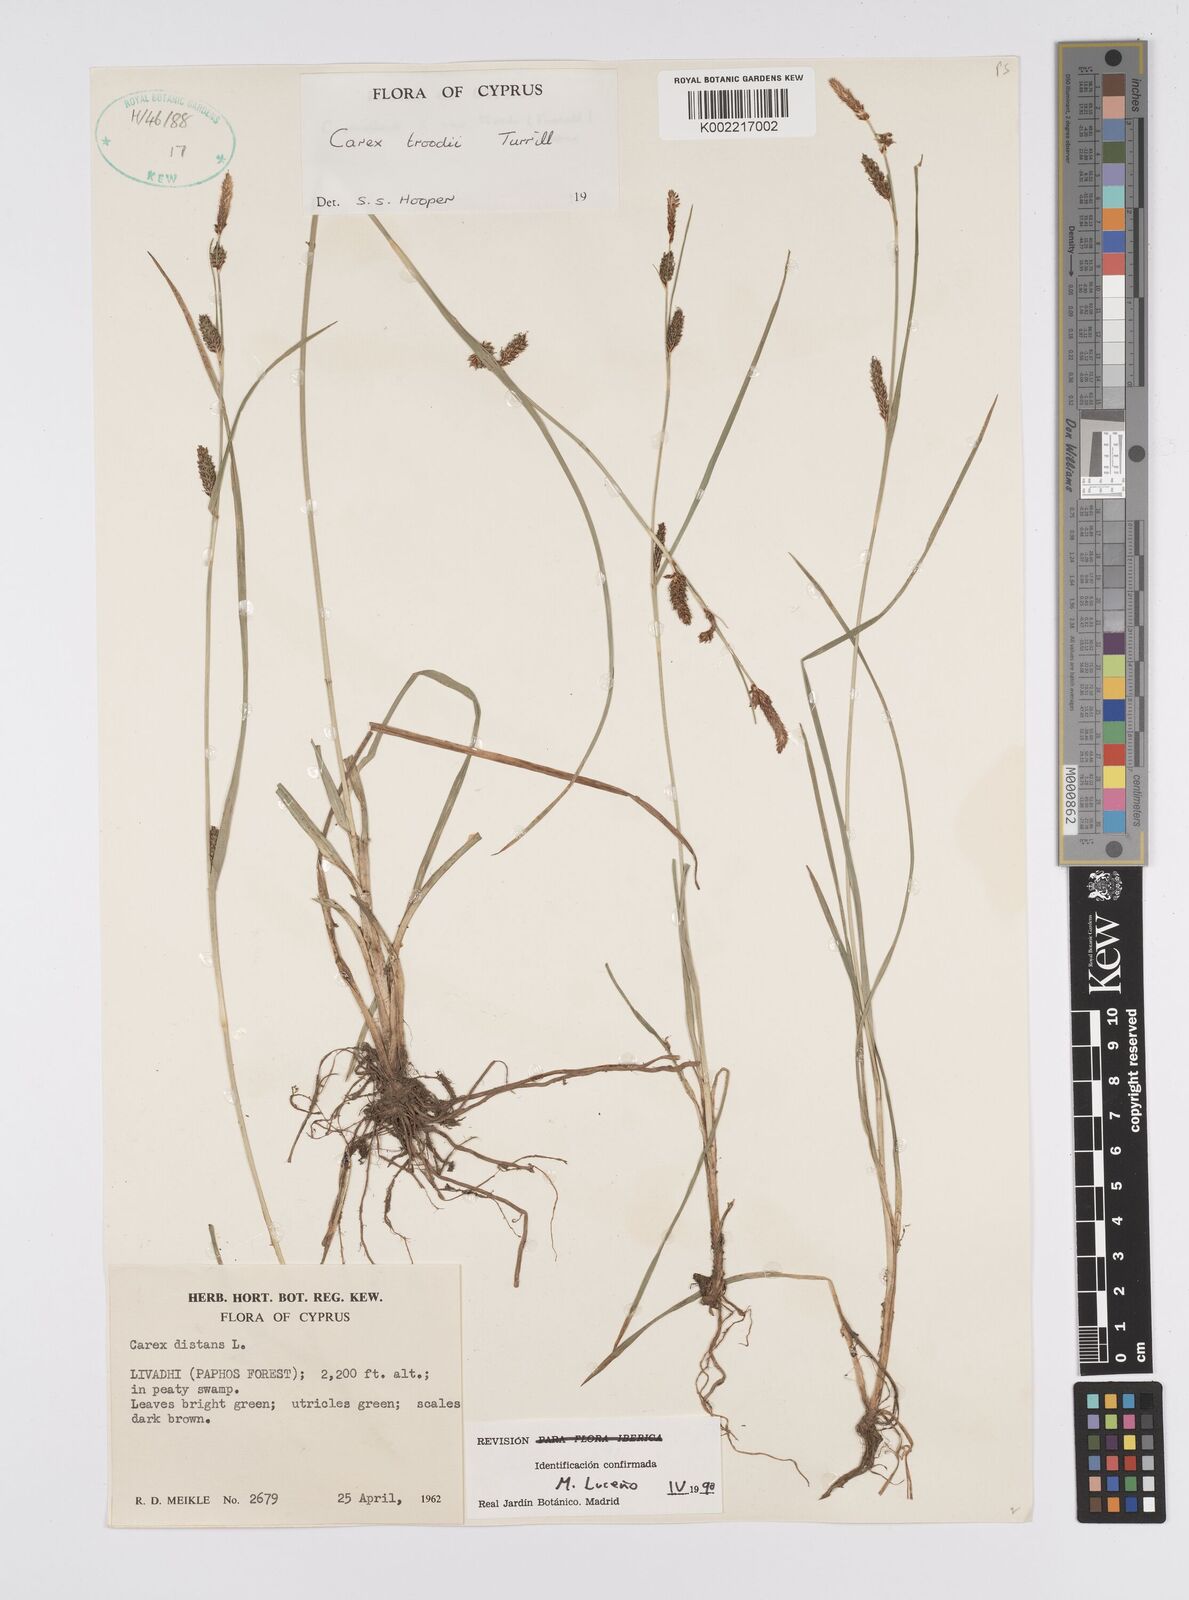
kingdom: Plantae
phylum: Tracheophyta
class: Liliopsida
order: Poales
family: Cyperaceae
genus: Carex
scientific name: Carex troodi
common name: Troodos mount sedge
